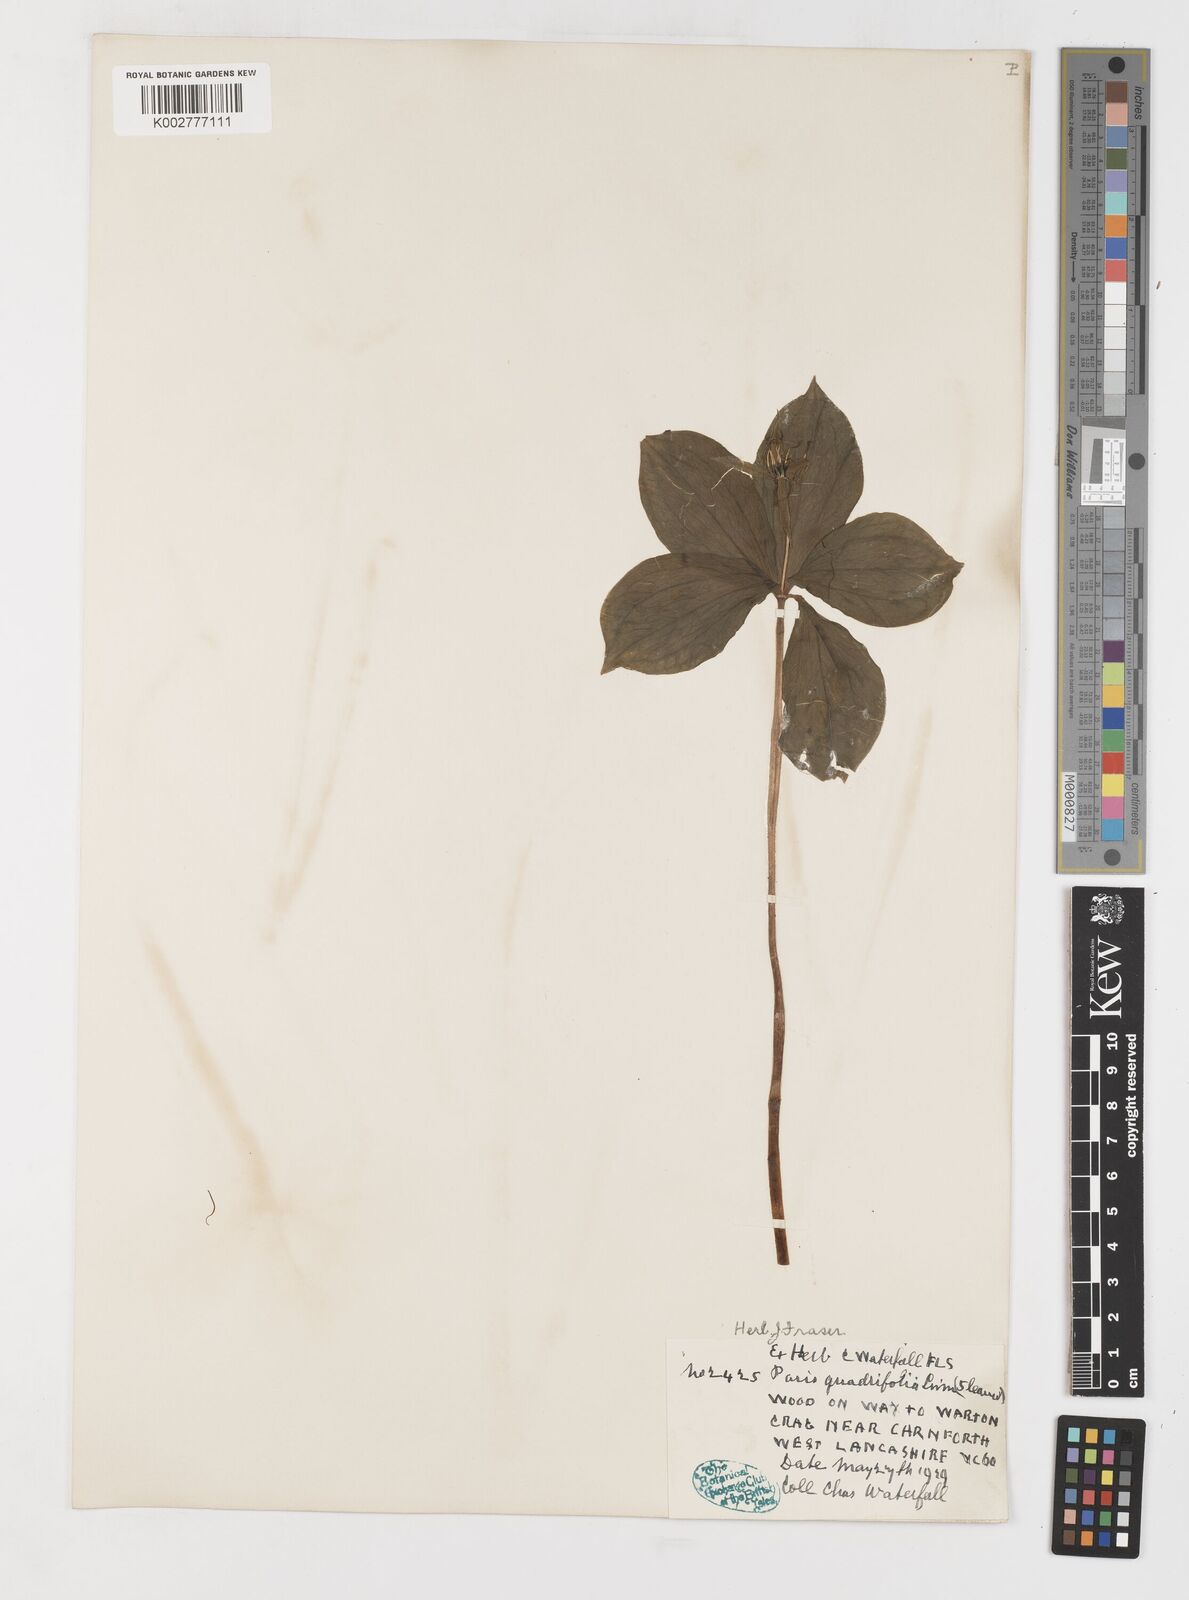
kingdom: Plantae
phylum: Tracheophyta
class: Liliopsida
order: Liliales
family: Melanthiaceae
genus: Paris
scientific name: Paris quadrifolia
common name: Herb-paris
